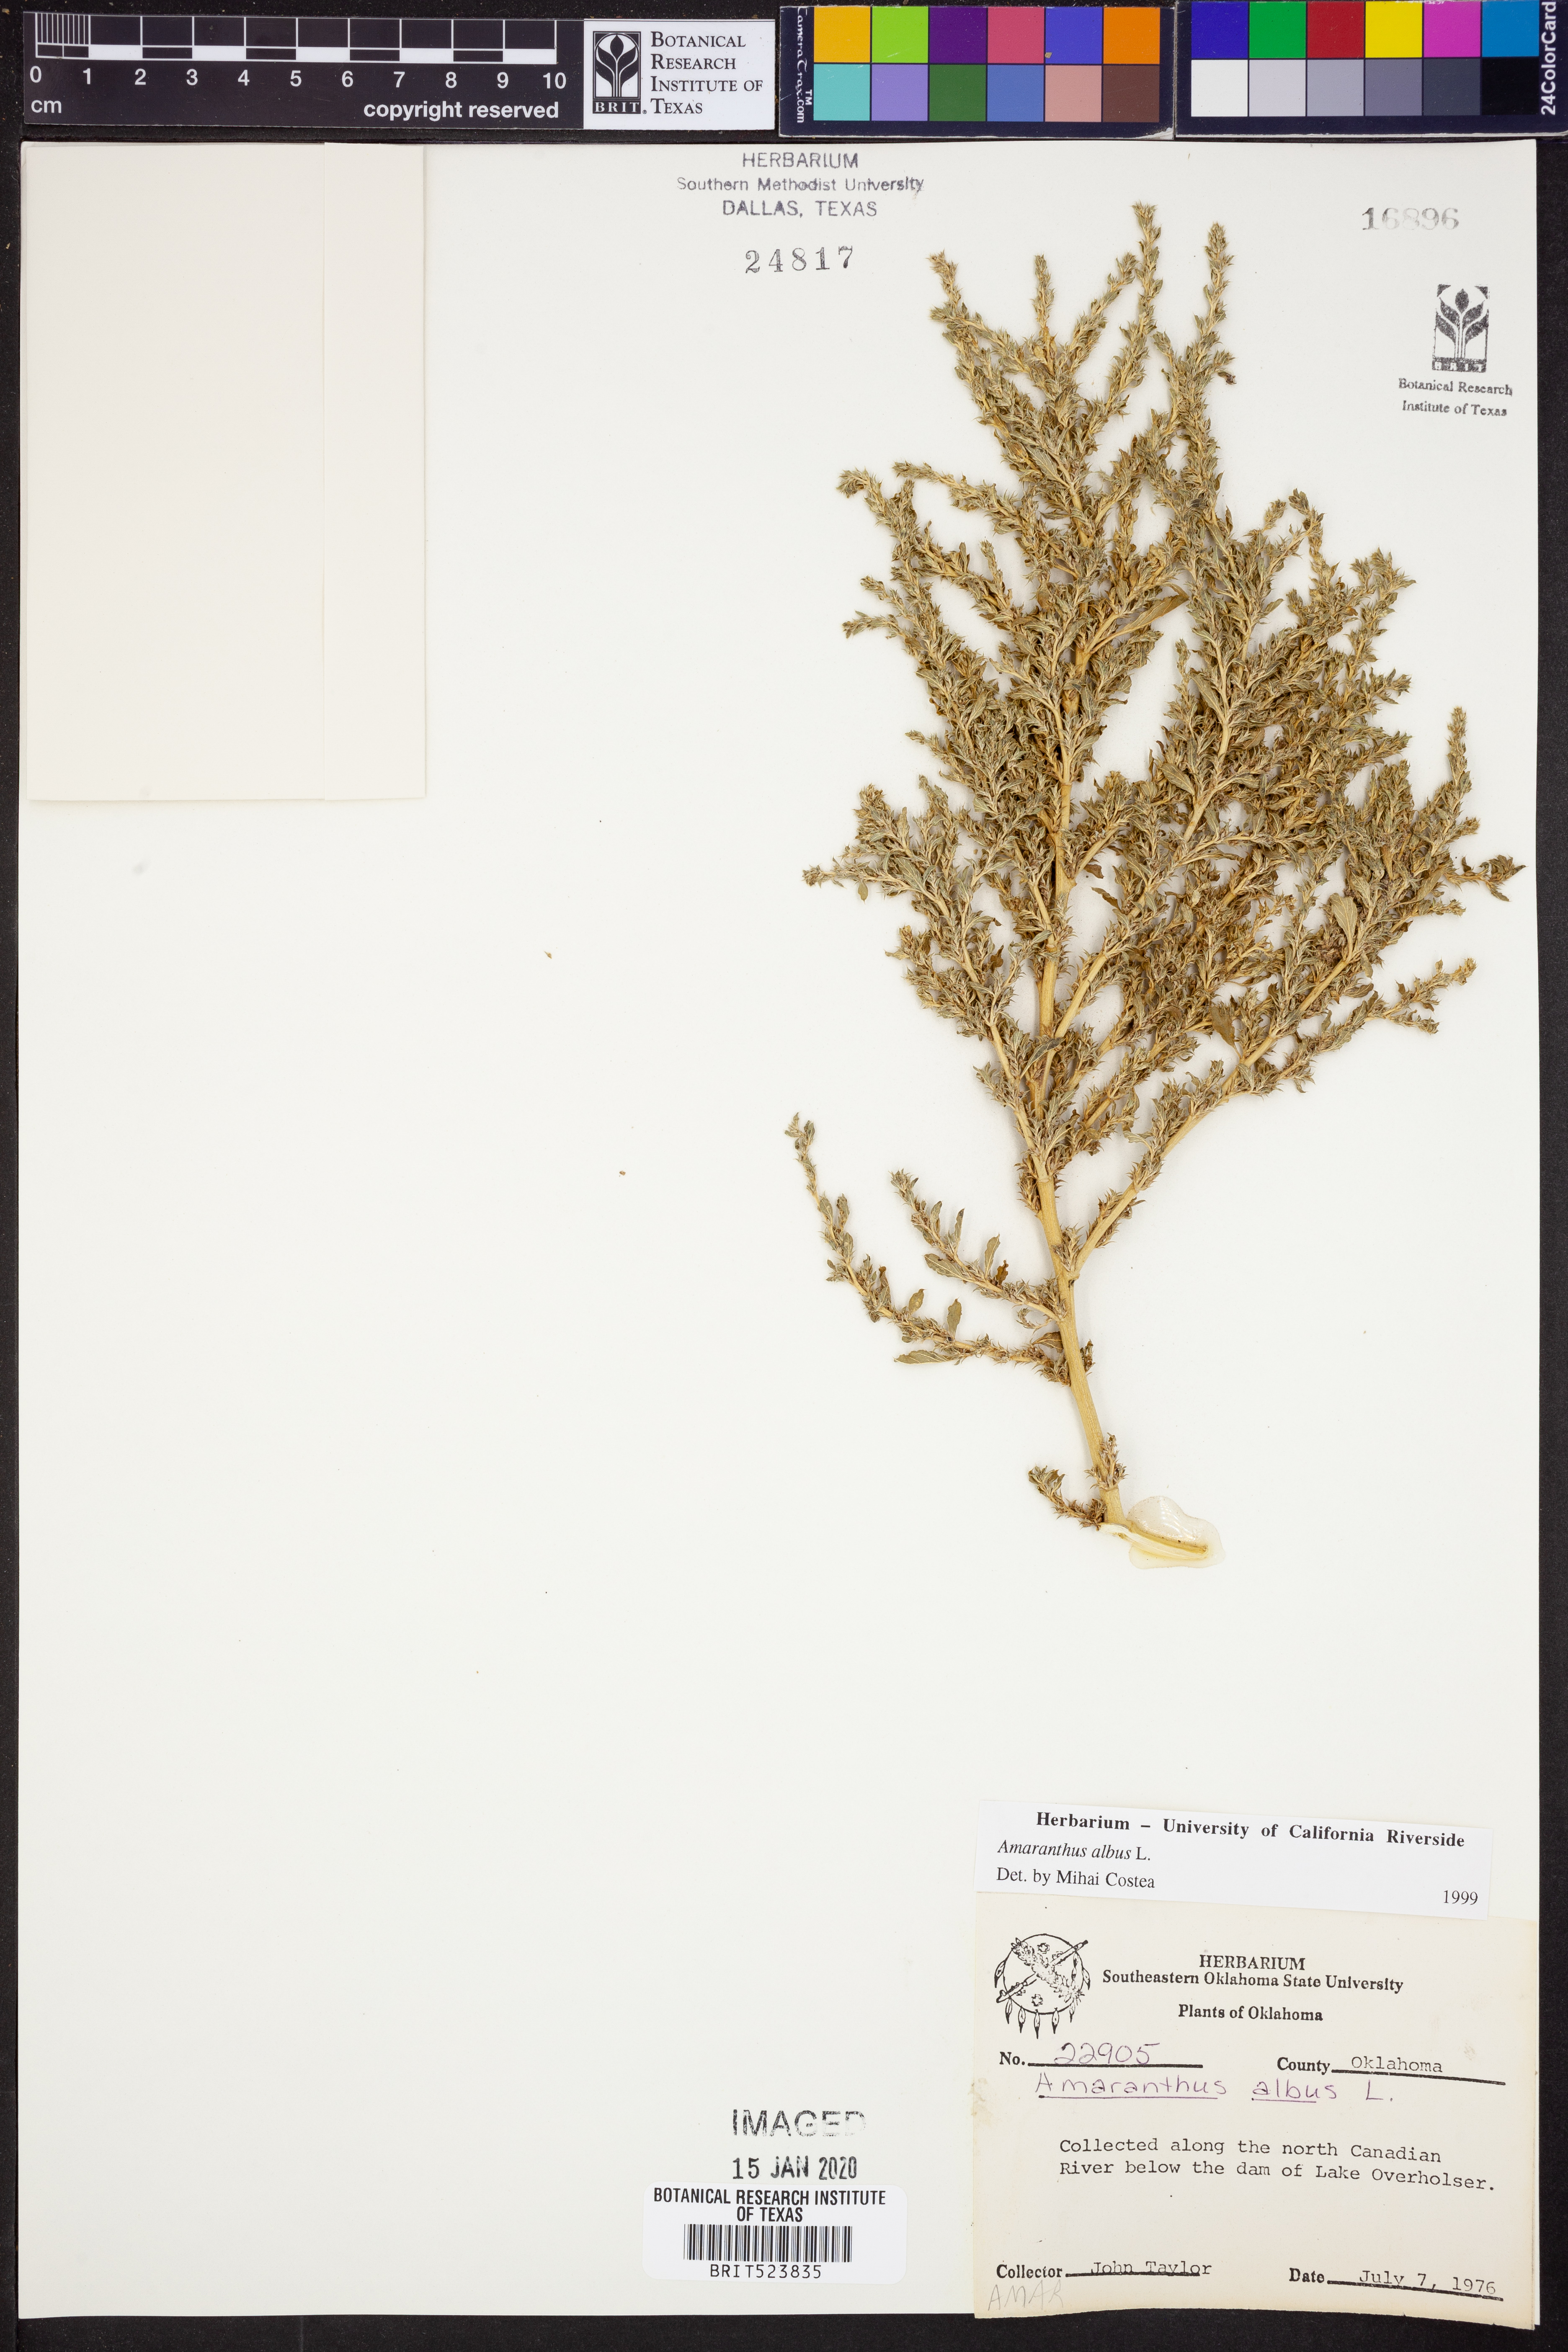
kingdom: Plantae
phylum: Tracheophyta
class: Magnoliopsida
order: Caryophyllales
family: Amaranthaceae
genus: Amaranthus
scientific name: Amaranthus albus
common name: White pigweed
